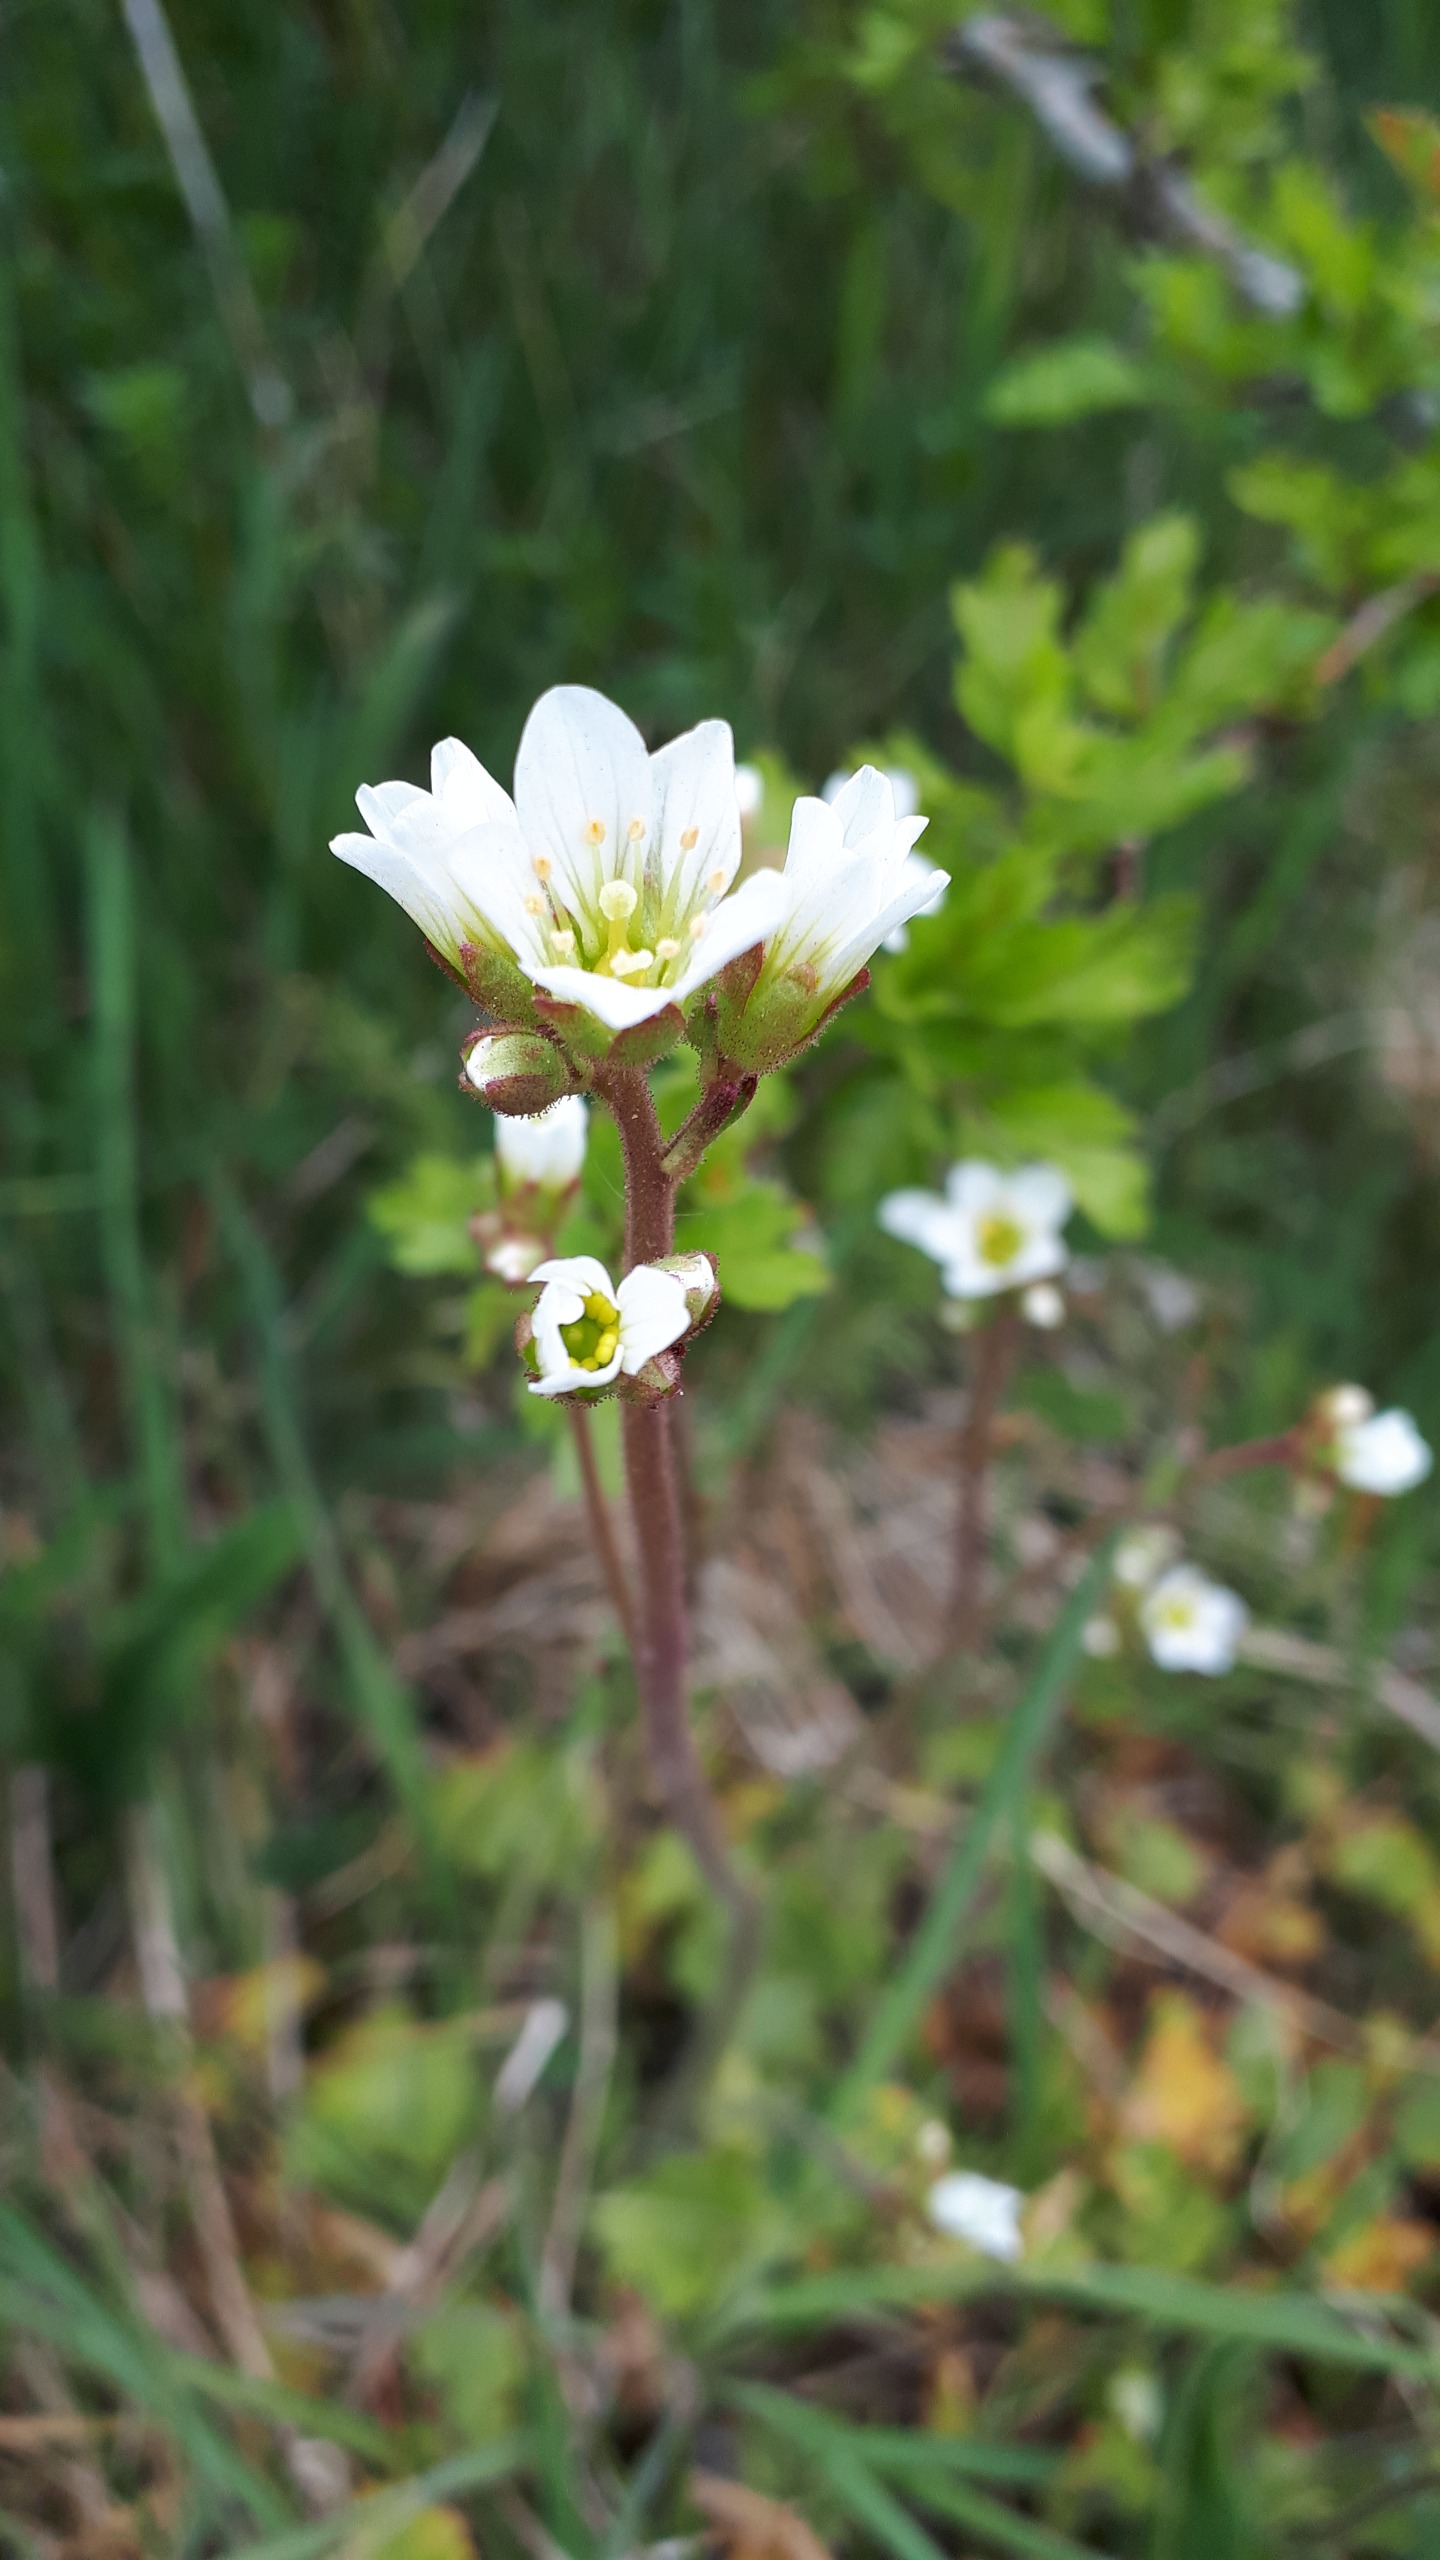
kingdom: Plantae
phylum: Tracheophyta
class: Magnoliopsida
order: Saxifragales
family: Saxifragaceae
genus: Saxifraga
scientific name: Saxifraga granulata
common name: Kornet stenbræk
